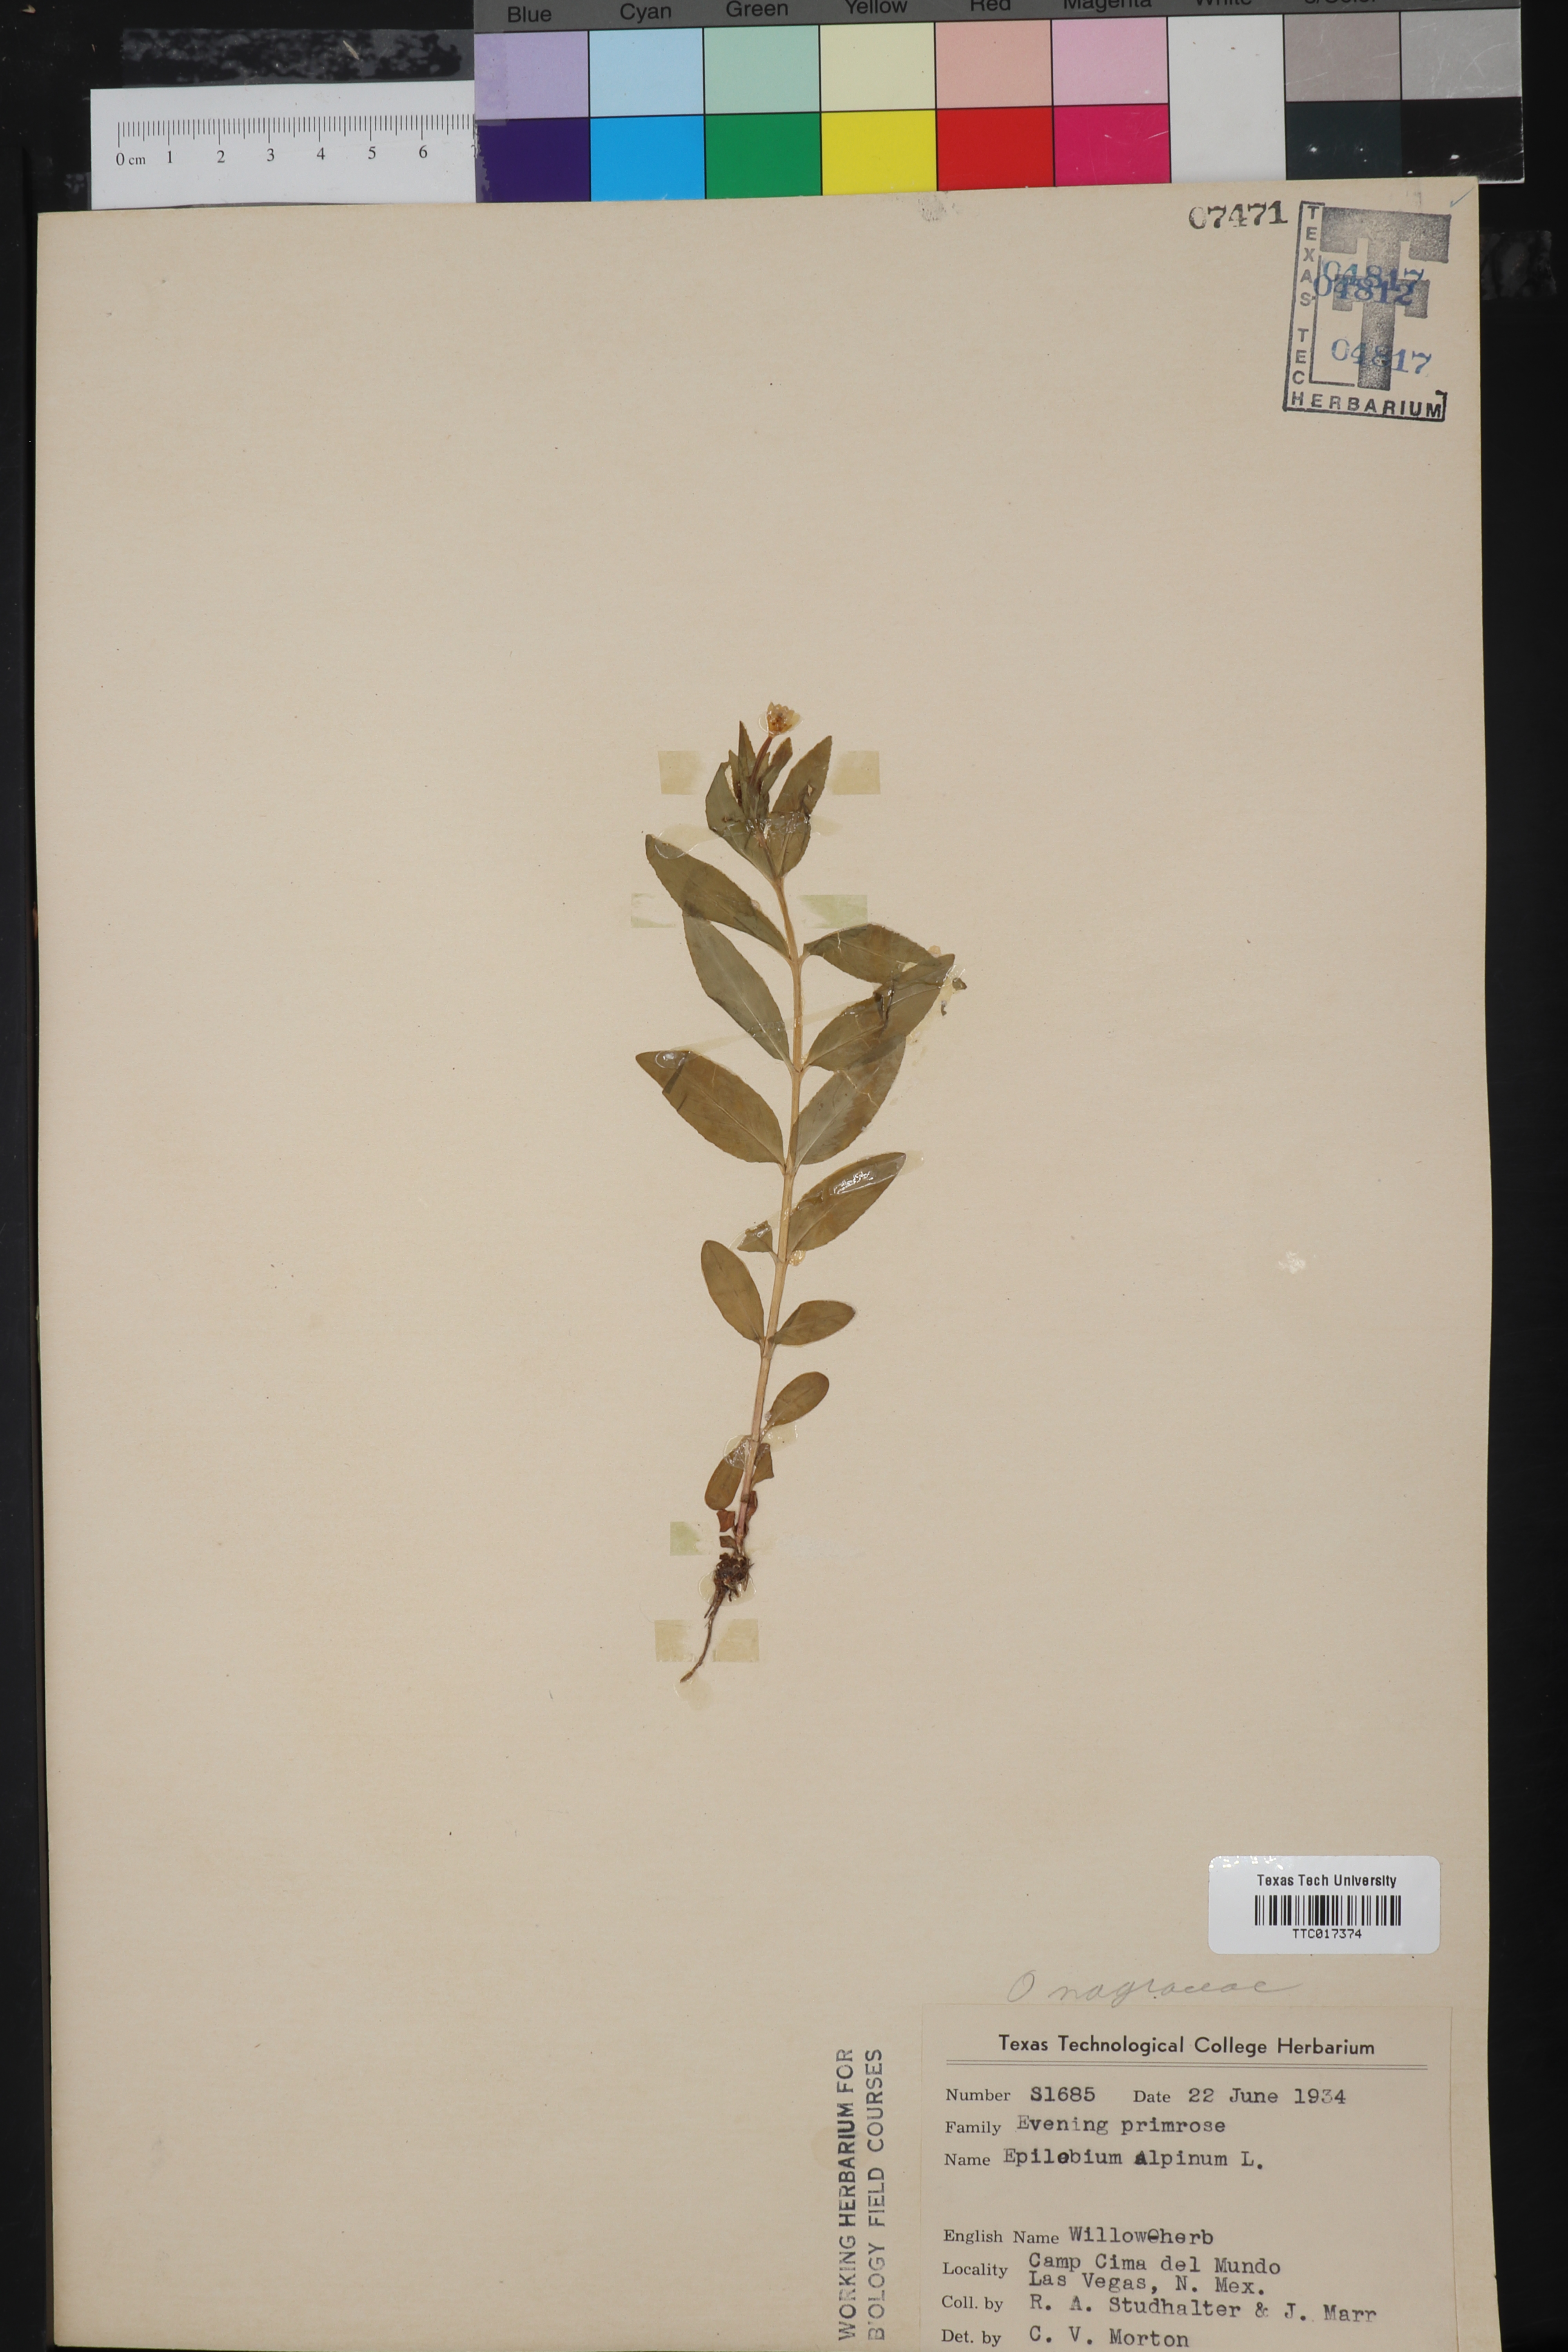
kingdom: Plantae
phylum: Tracheophyta
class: Magnoliopsida
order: Myrtales
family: Onagraceae
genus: Chamaenerion
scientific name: Chamaenerion dodonaei
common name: Rosemary-leaved willowherb
